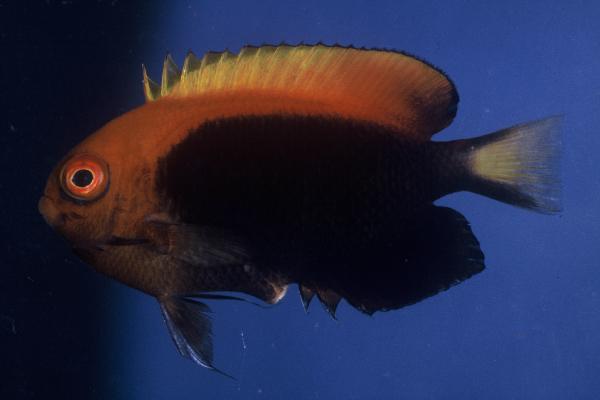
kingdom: Animalia
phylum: Chordata
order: Perciformes
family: Pomacanthidae
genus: Centropyge
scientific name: Centropyge acanthops
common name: African pygmy angelfish
